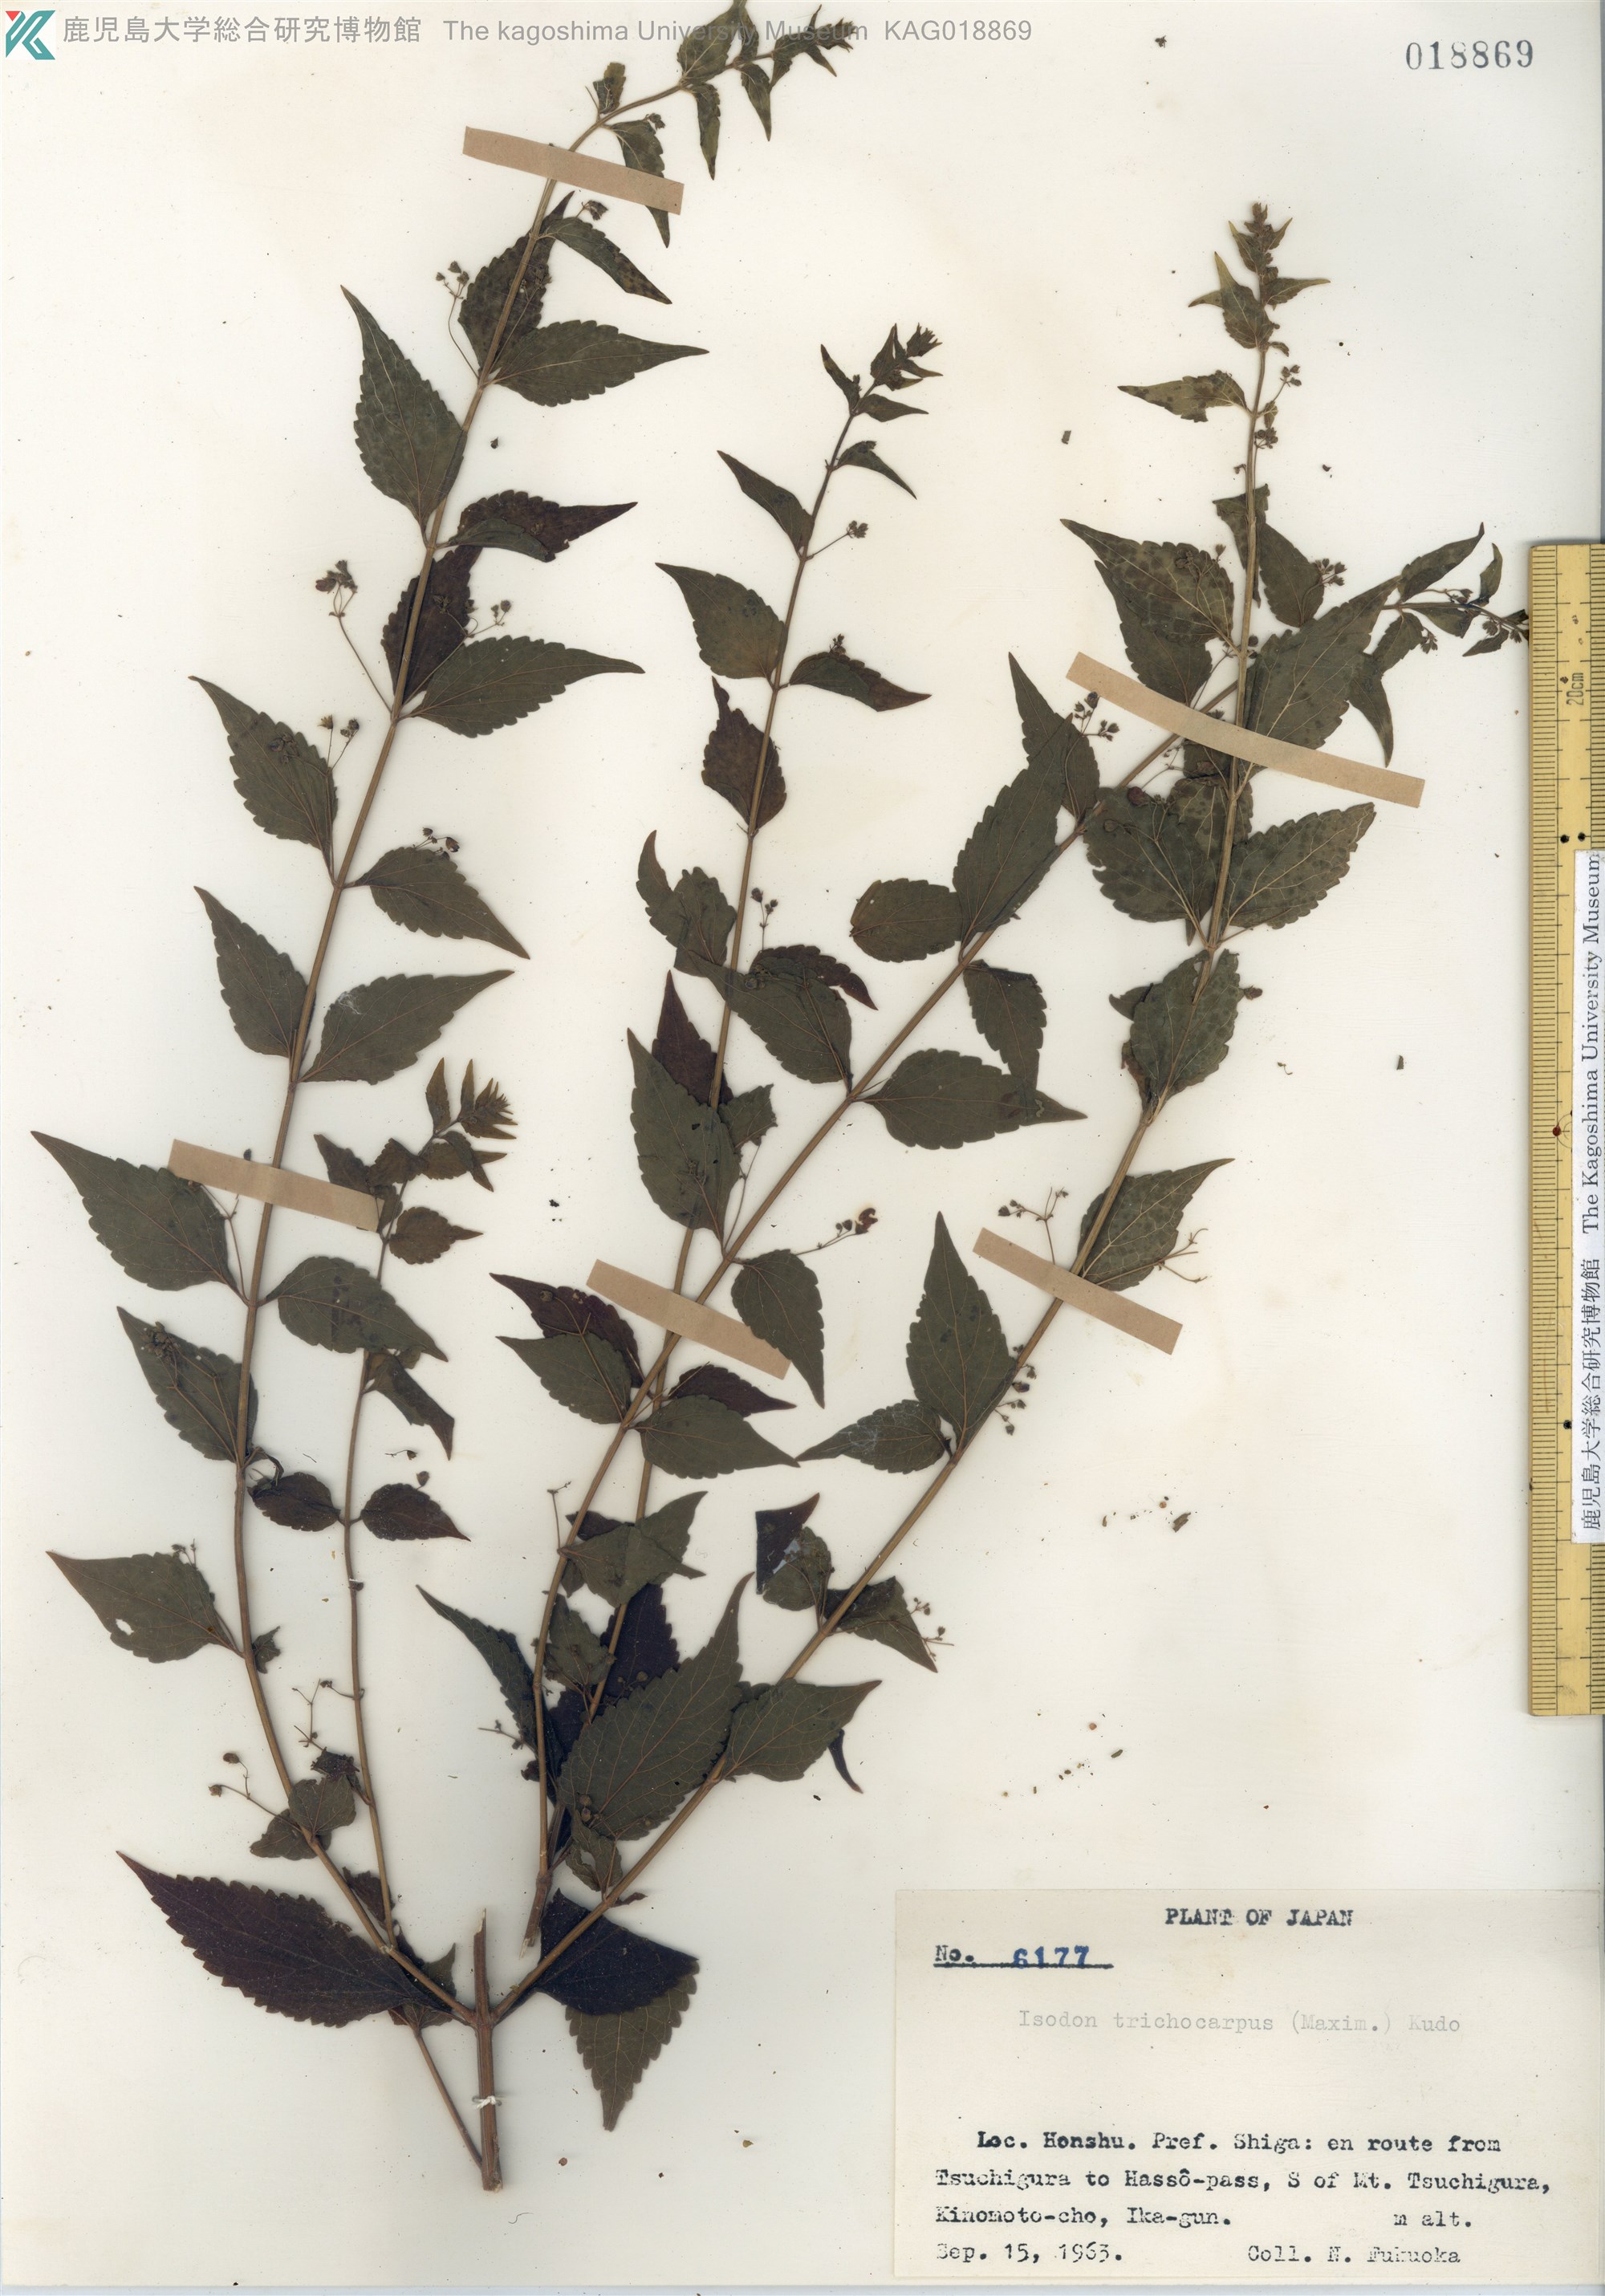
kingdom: Plantae
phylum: Tracheophyta
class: Magnoliopsida
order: Lamiales
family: Lamiaceae
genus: Isodon
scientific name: Isodon trichocarpus
